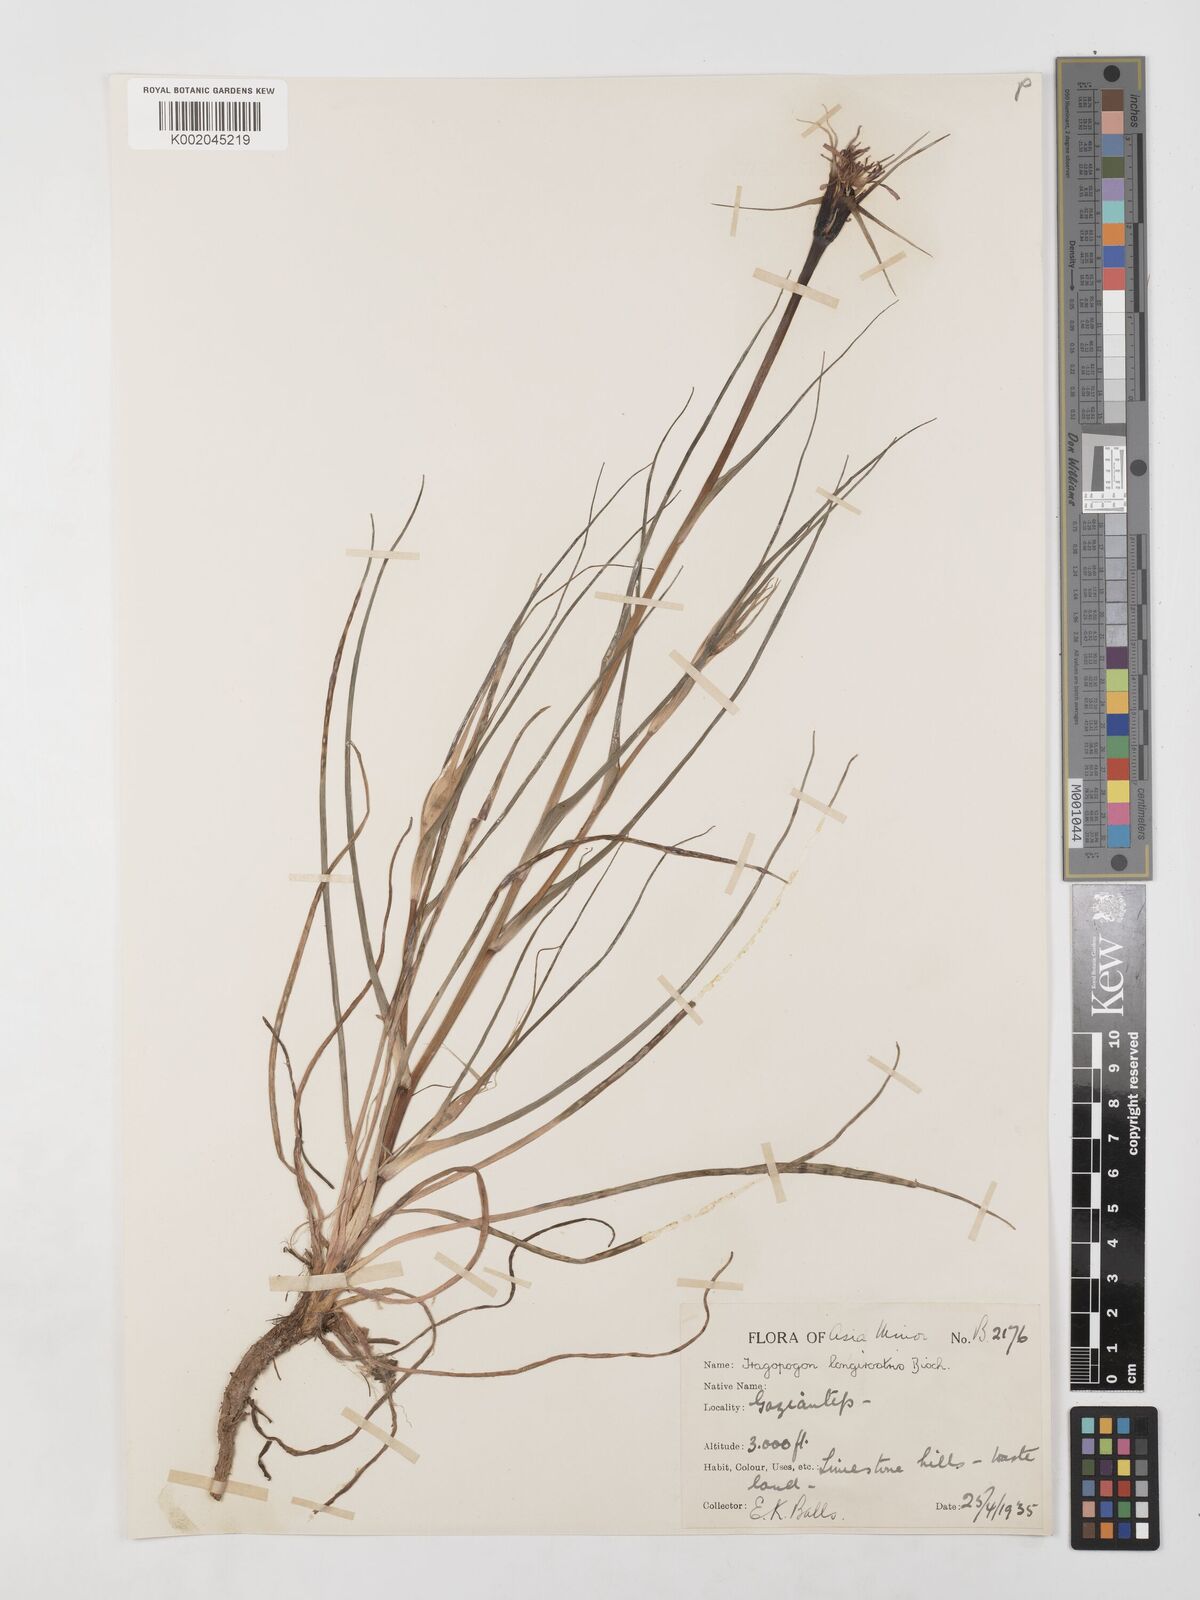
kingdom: Plantae
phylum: Tracheophyta
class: Magnoliopsida
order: Asterales
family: Asteraceae
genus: Tragopogon
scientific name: Tragopogon coelesyriacus
